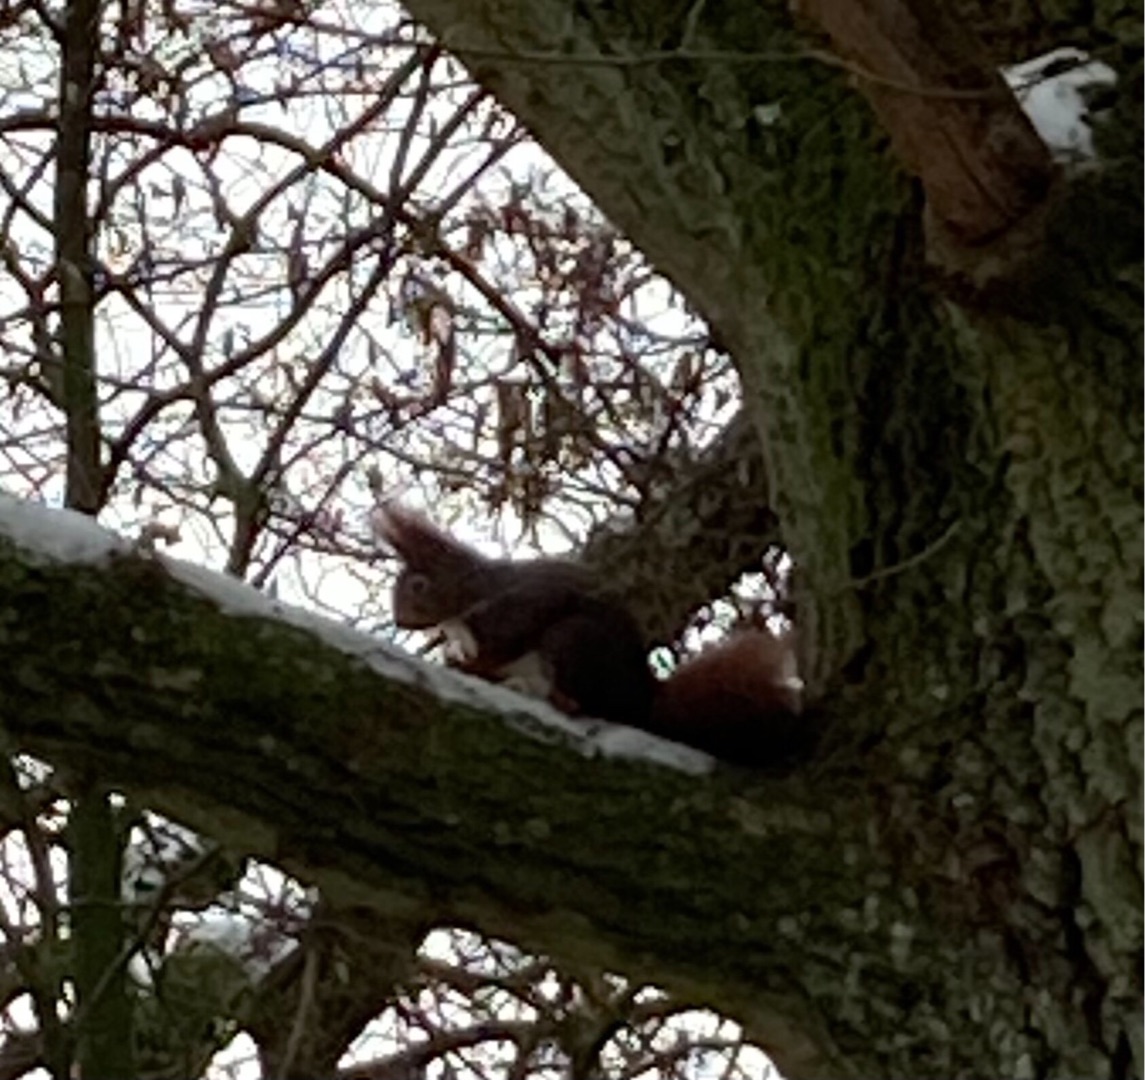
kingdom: Animalia
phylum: Chordata
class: Mammalia
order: Rodentia
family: Sciuridae
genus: Sciurus
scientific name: Sciurus vulgaris
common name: Egern
